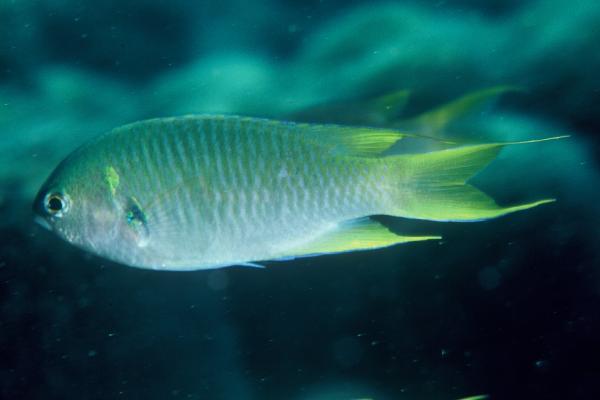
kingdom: Animalia
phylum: Chordata
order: Perciformes
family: Pomacentridae
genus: Neopomacentrus
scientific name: Neopomacentrus azysron
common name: Yellow-tail damsel
